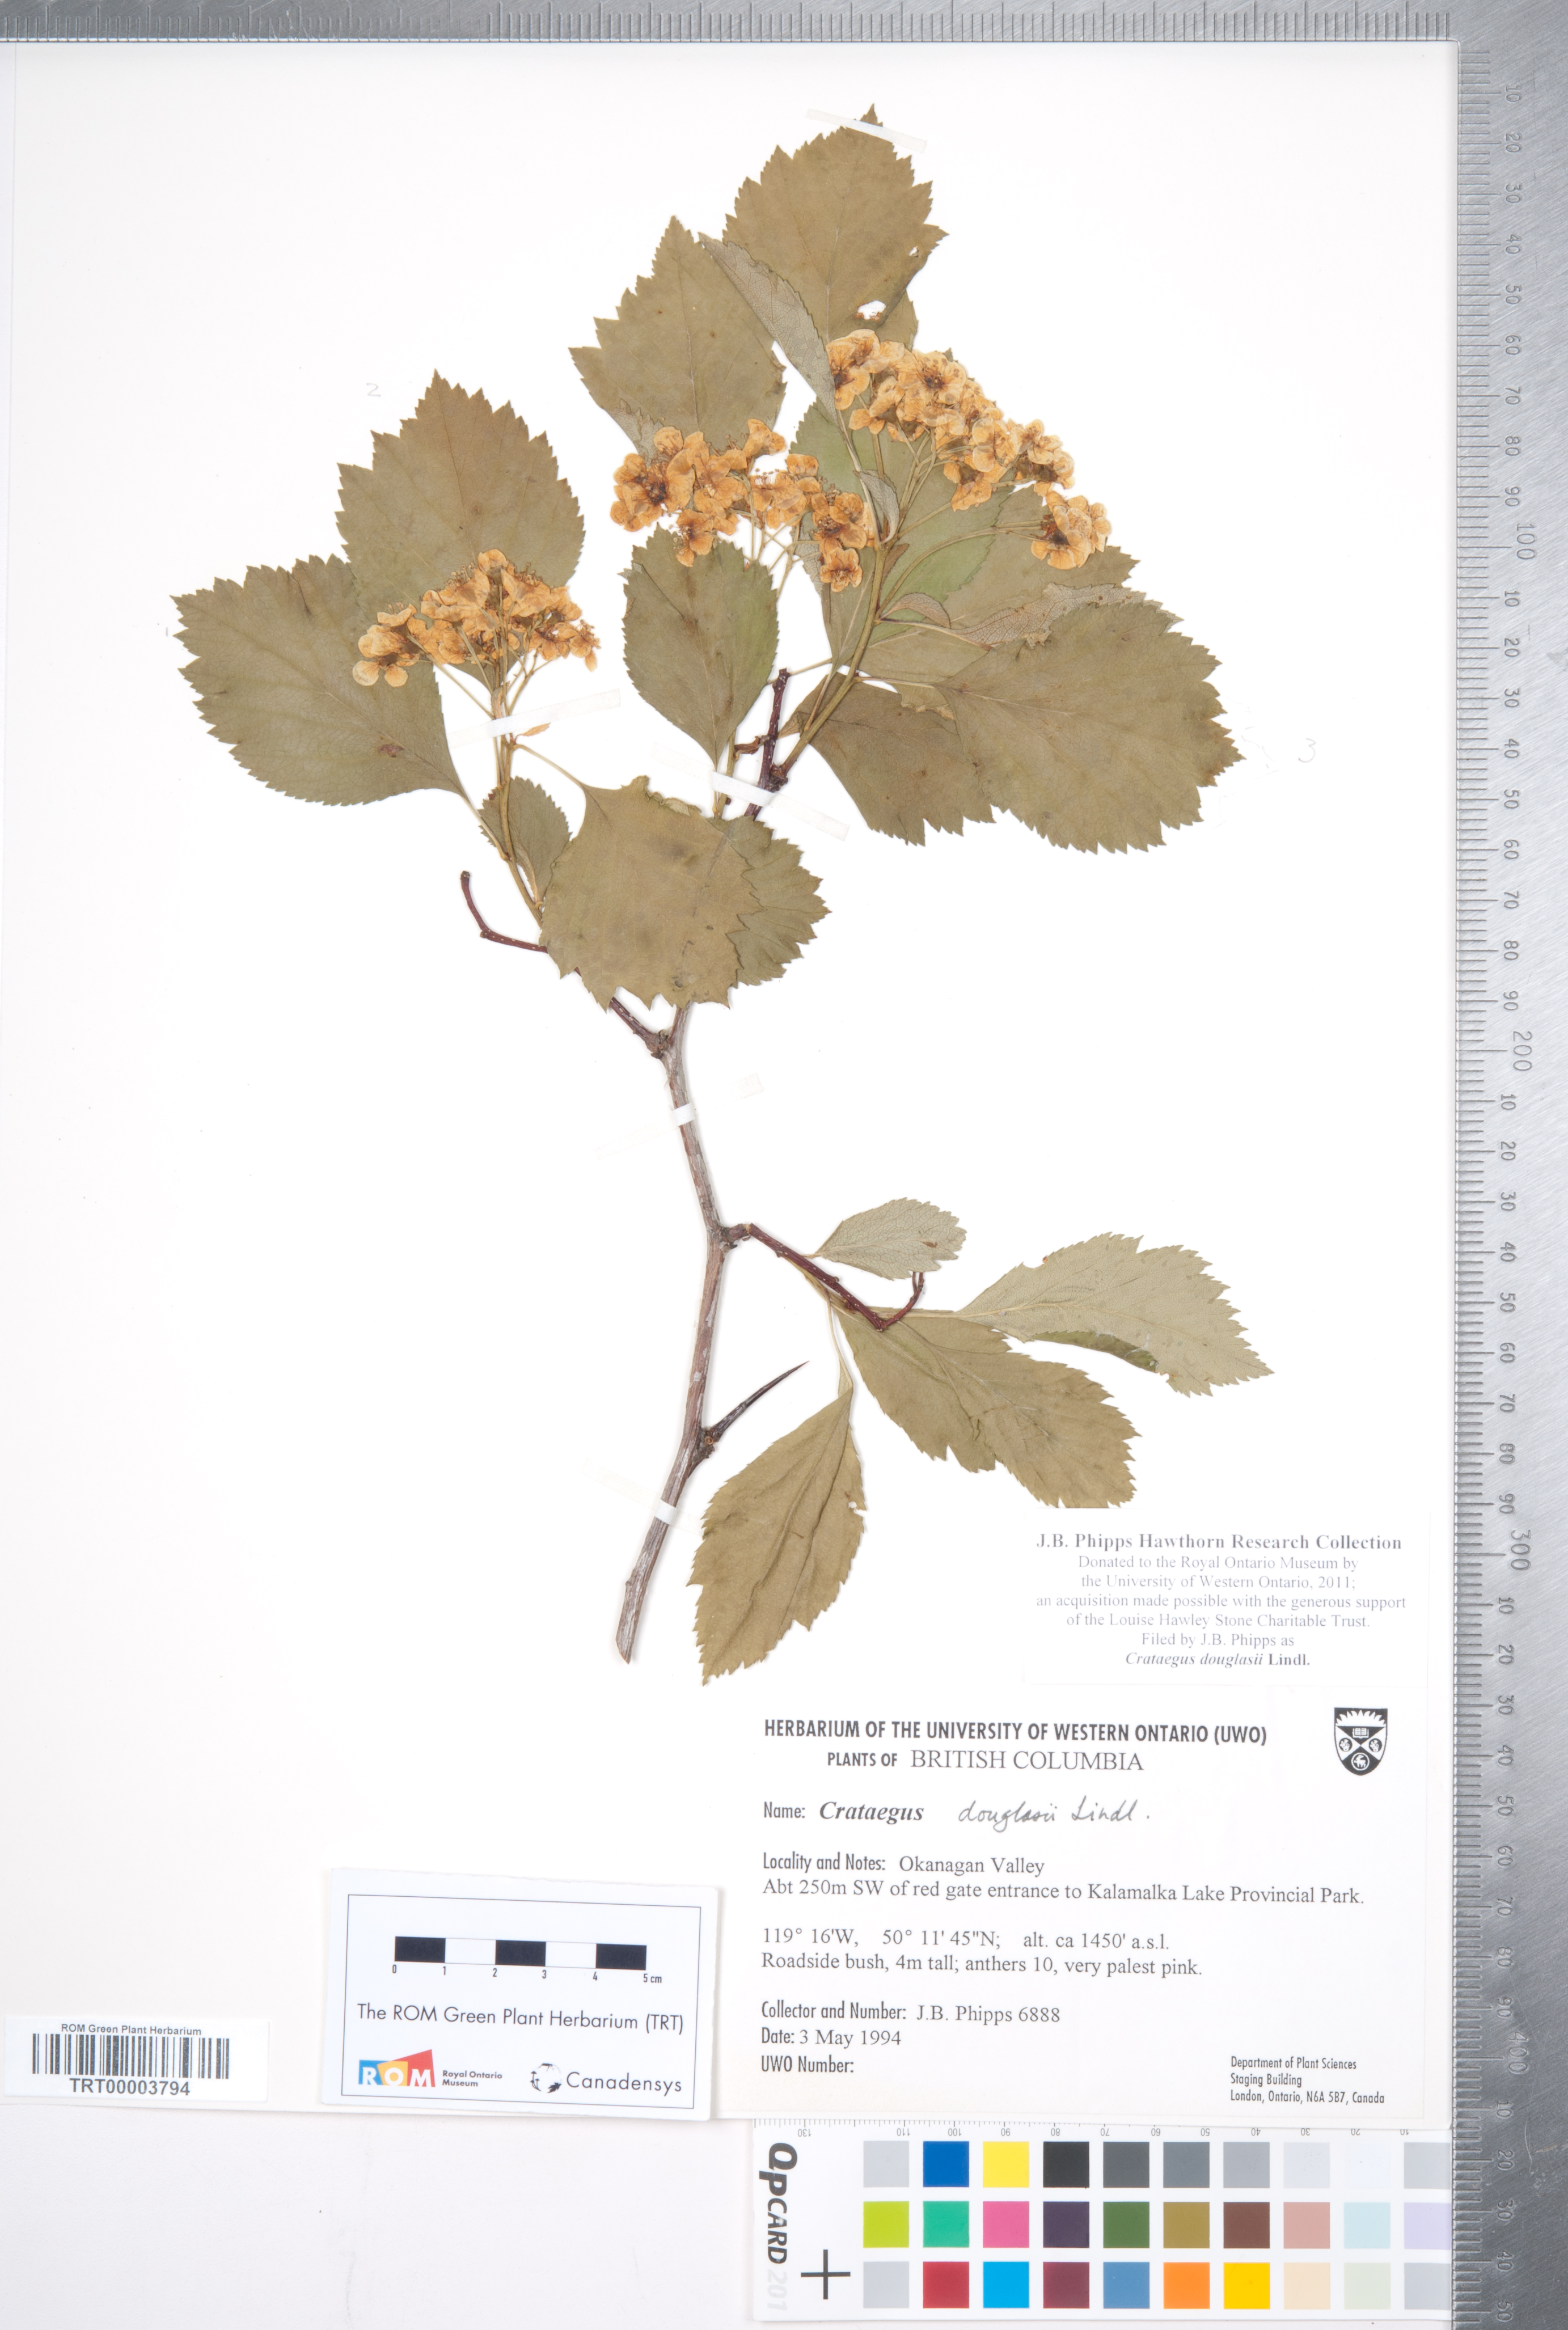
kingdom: Plantae
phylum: Tracheophyta
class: Magnoliopsida
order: Rosales
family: Rosaceae
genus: Crataegus
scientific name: Crataegus douglasii
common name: Black hawthorn
